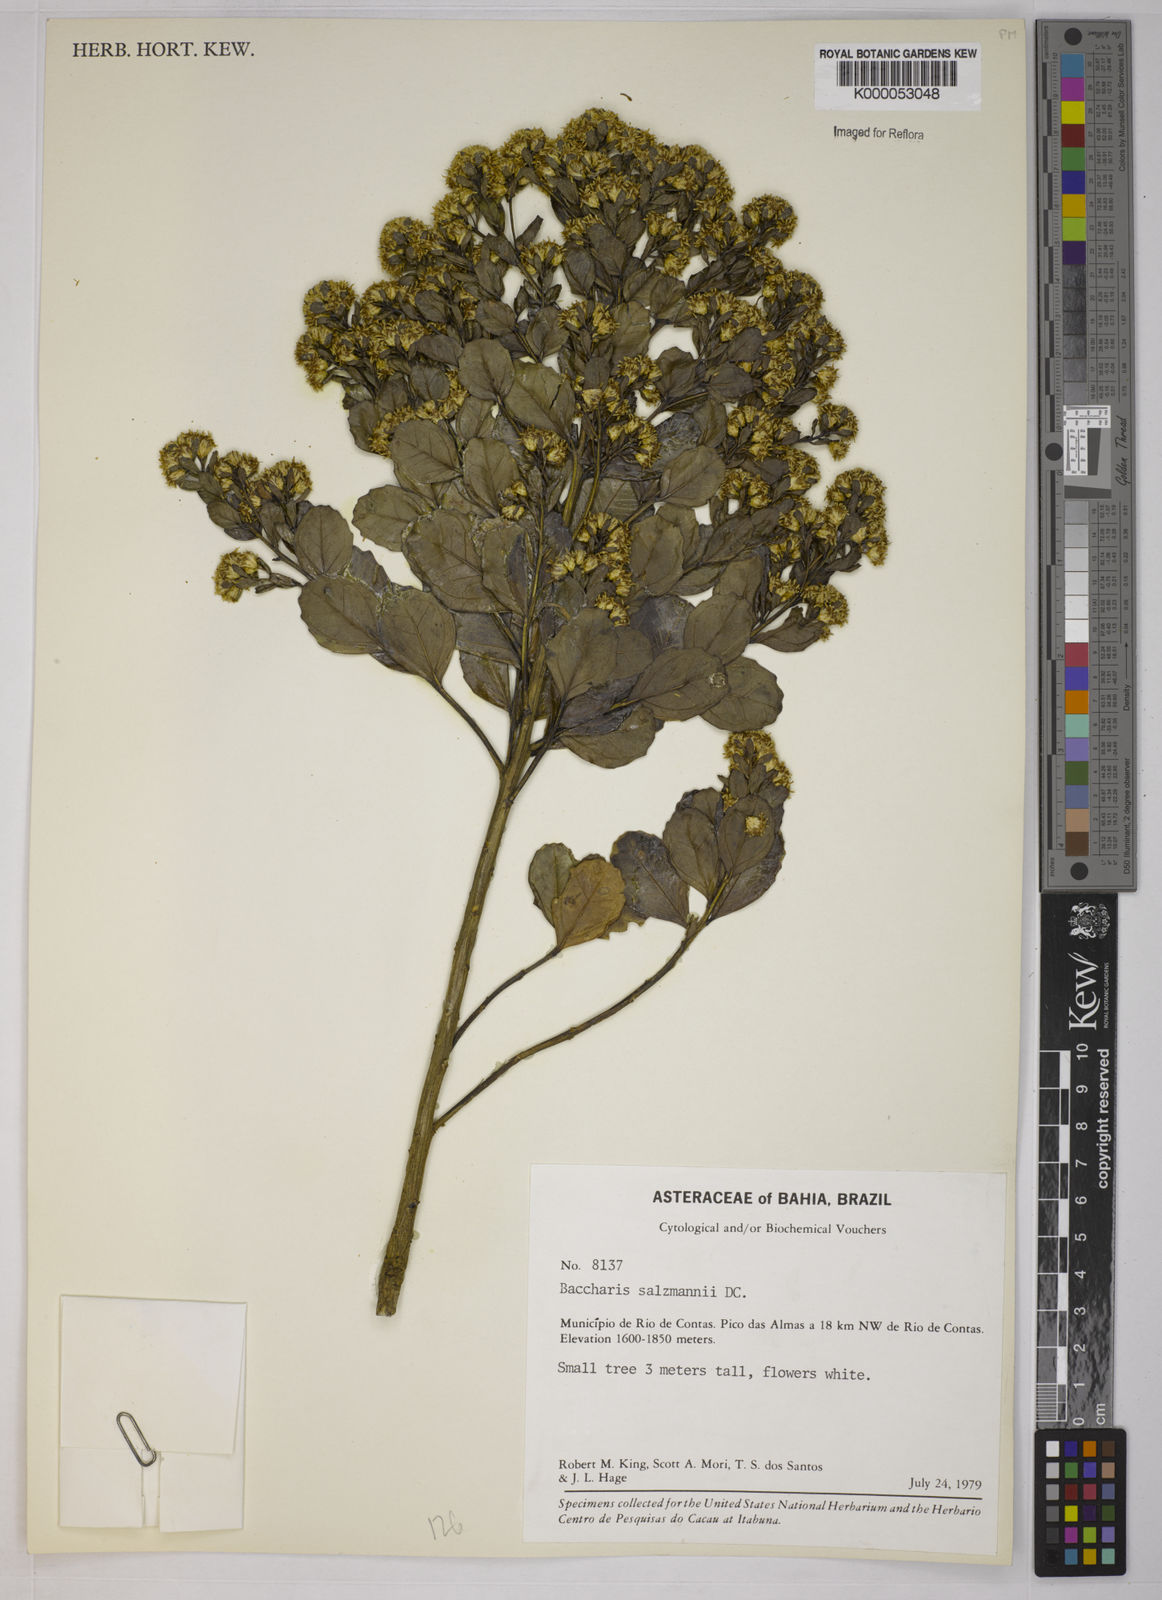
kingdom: Plantae
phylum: Tracheophyta
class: Magnoliopsida
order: Asterales
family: Asteraceae
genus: Baccharis
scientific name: Baccharis retusa
